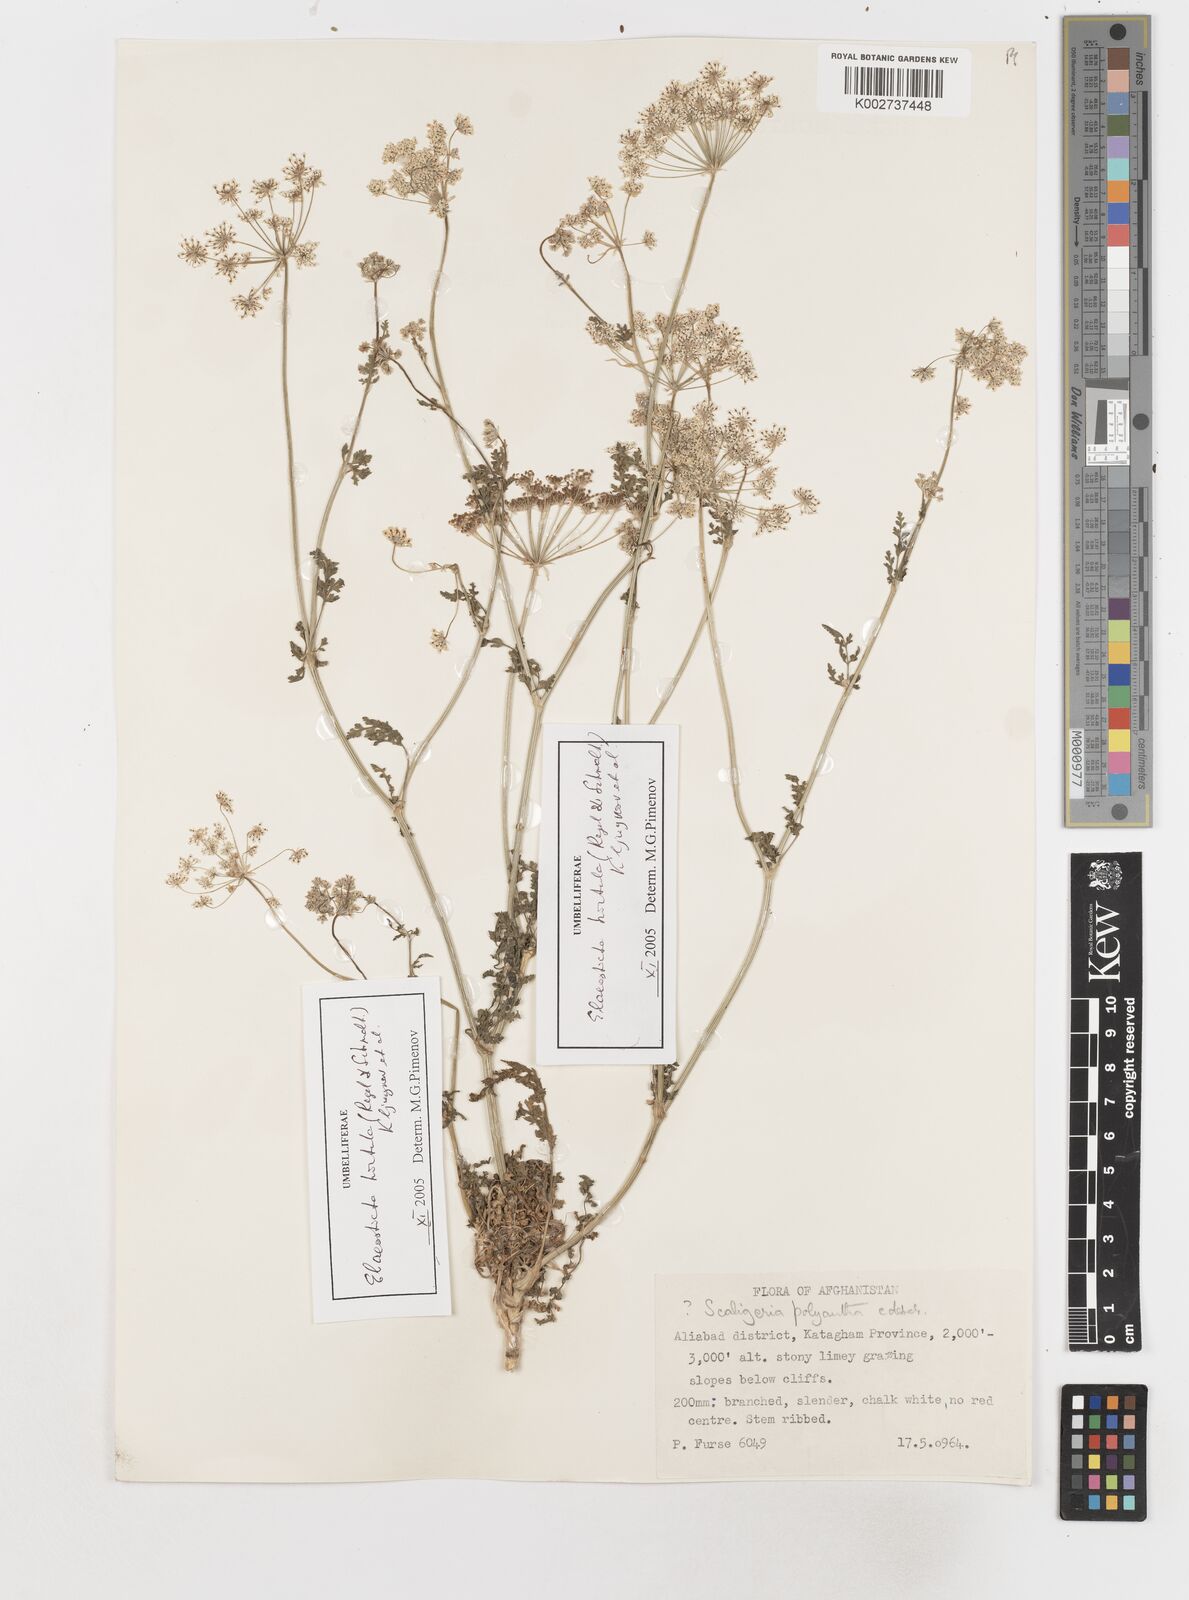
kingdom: Plantae
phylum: Tracheophyta
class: Magnoliopsida
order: Apiales
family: Apiaceae
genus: Scaligeria
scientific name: Scaligeria hirtula
